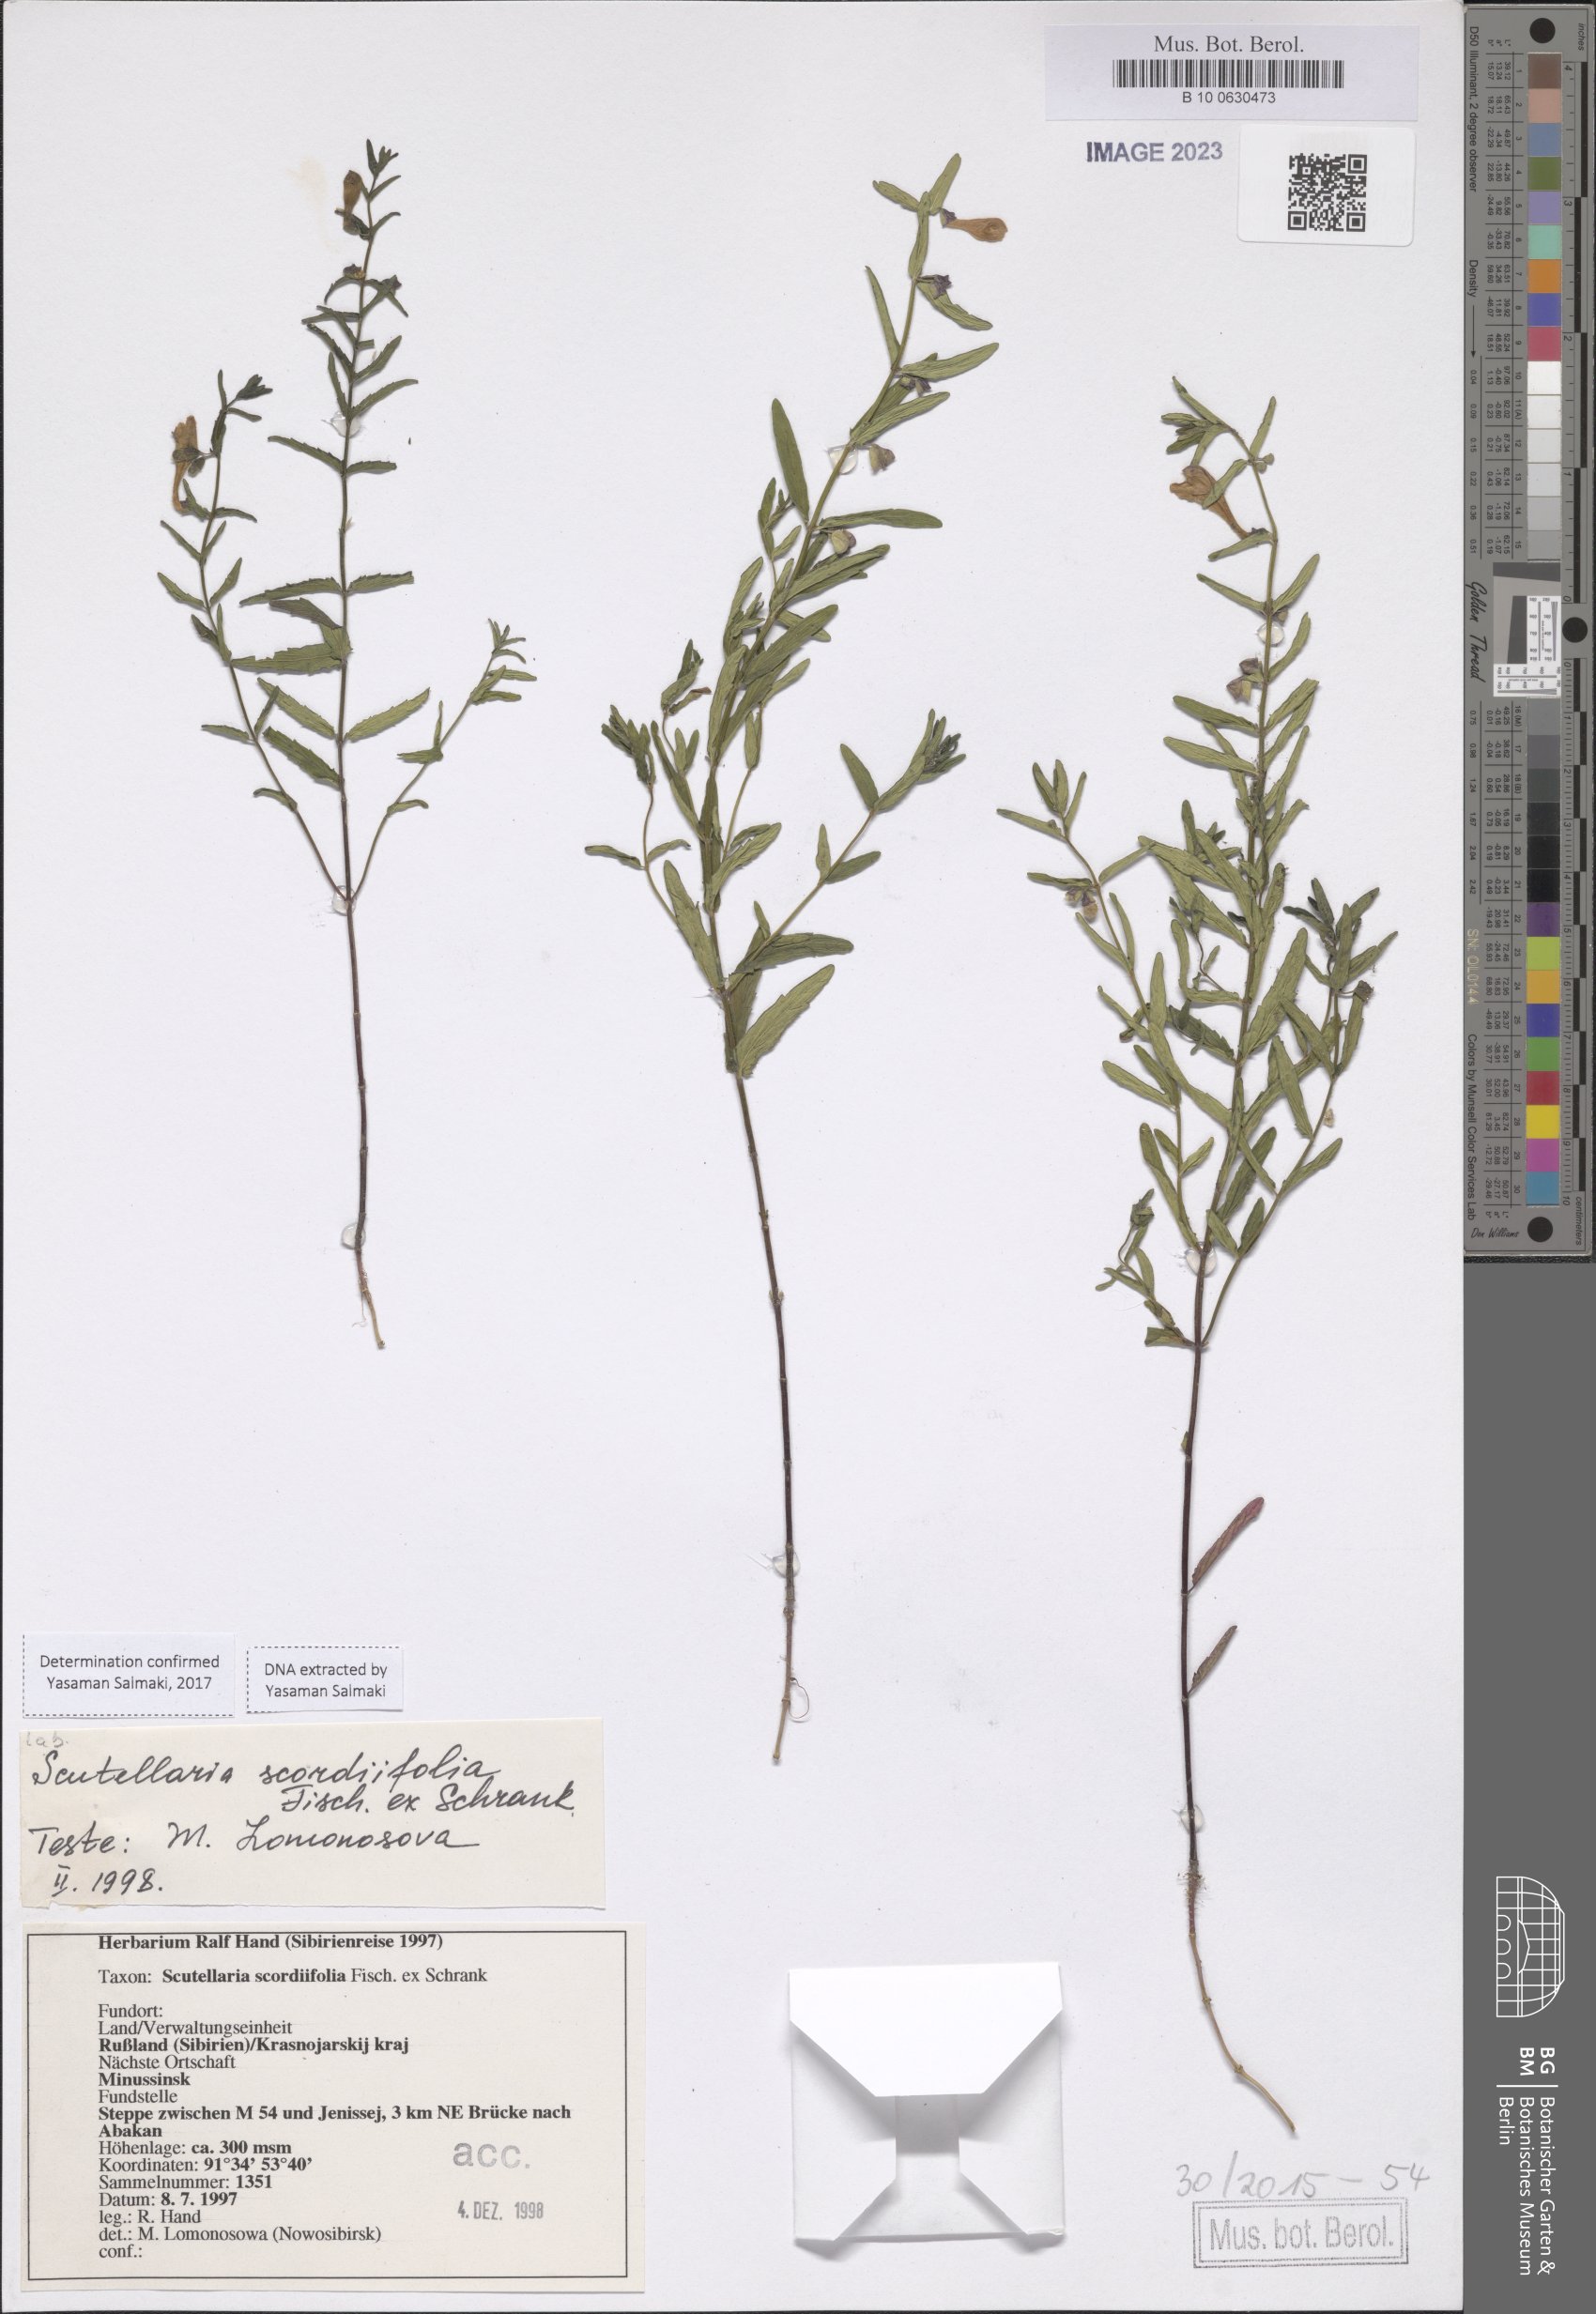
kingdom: Plantae
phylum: Tracheophyta
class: Magnoliopsida
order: Lamiales
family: Lamiaceae
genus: Scutellaria
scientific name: Scutellaria scordiifolia
